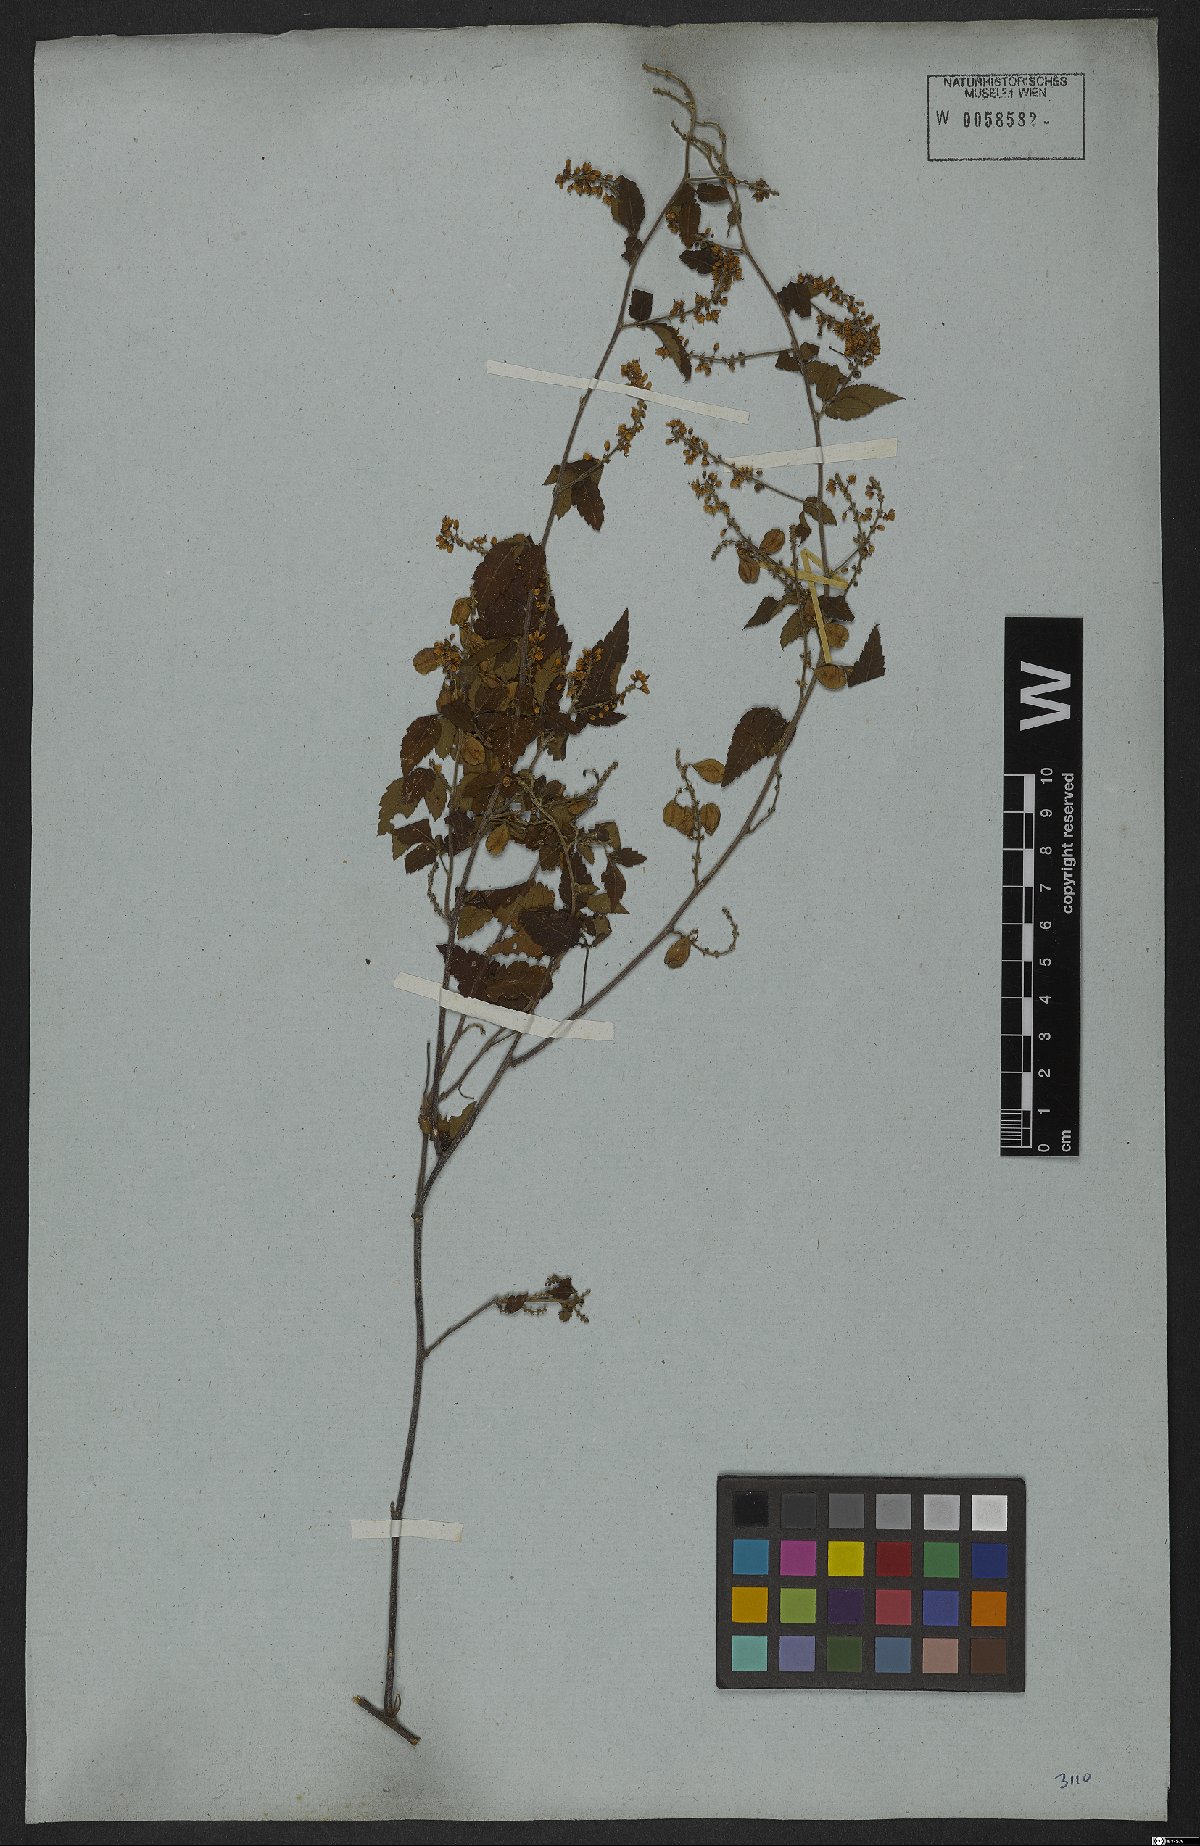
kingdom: Plantae
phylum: Tracheophyta
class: Magnoliopsida
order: Sapindales
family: Sapindaceae
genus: Urvillea
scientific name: Urvillea ulmacea
